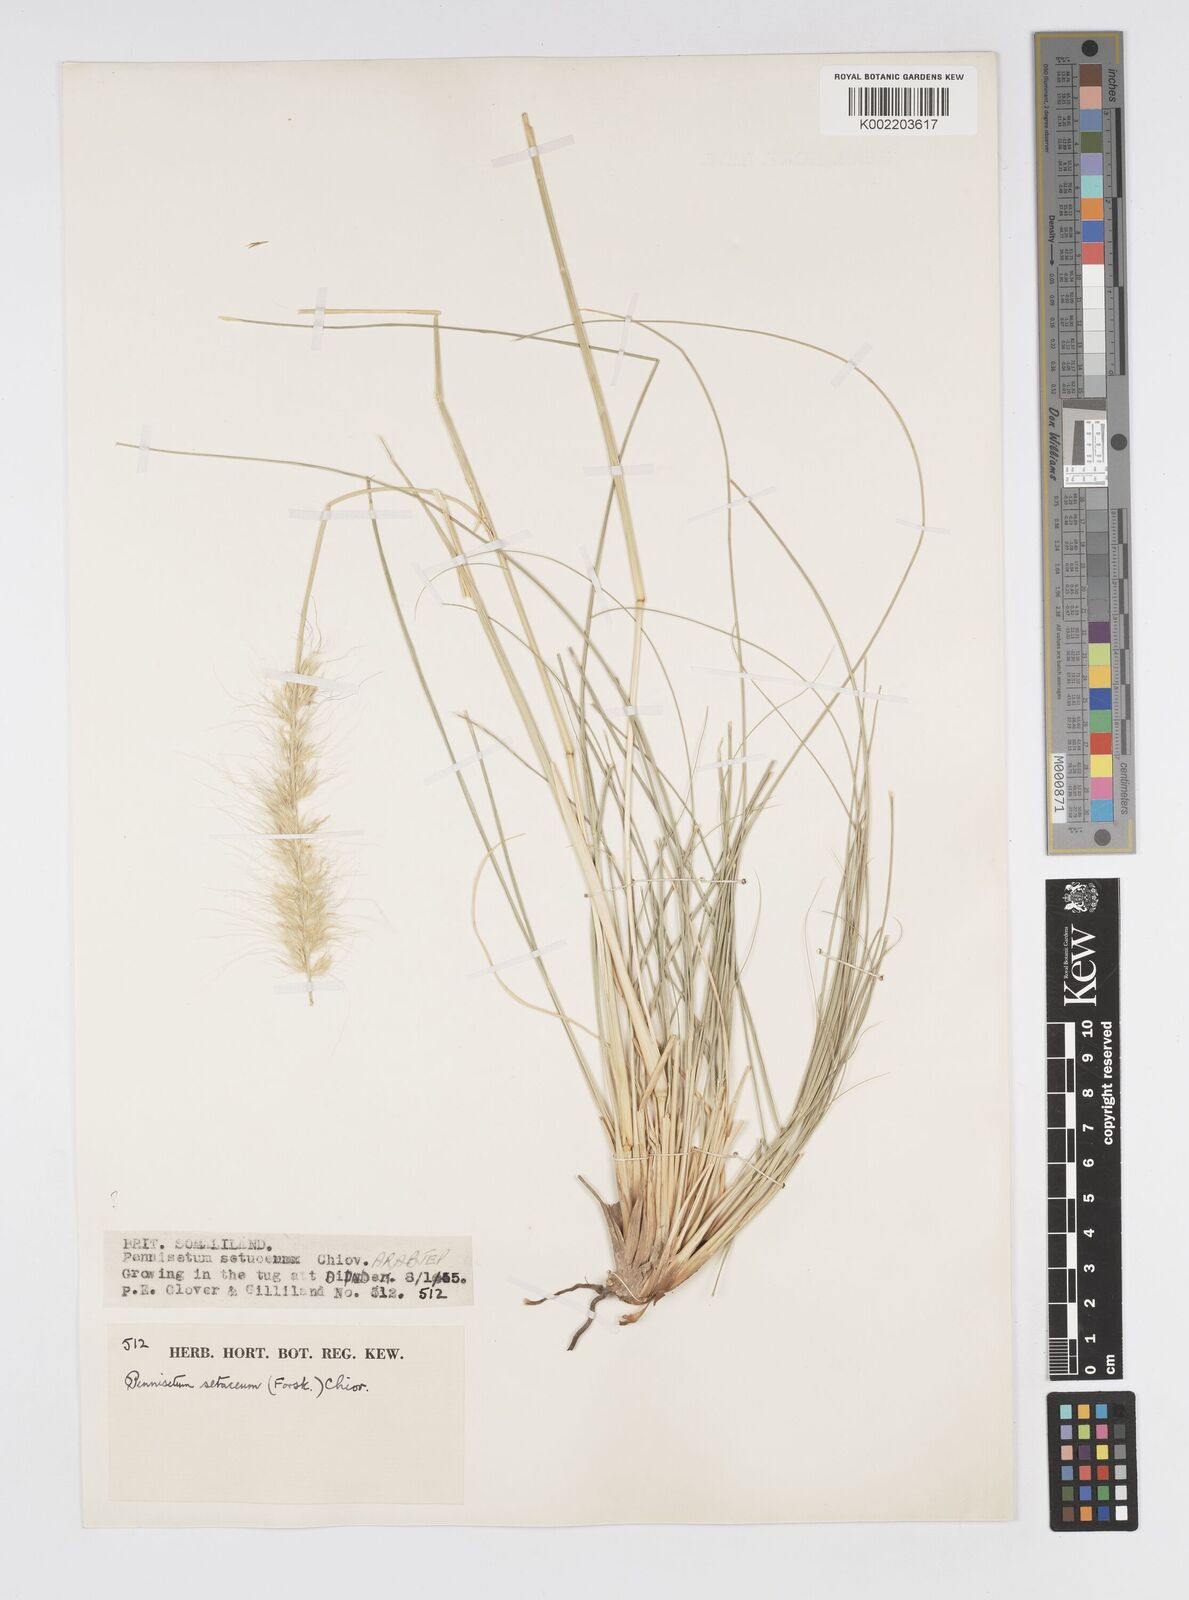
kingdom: Plantae
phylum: Tracheophyta
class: Liliopsida
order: Poales
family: Poaceae
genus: Cenchrus
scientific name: Cenchrus setaceus
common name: Crimson fountaingrass
